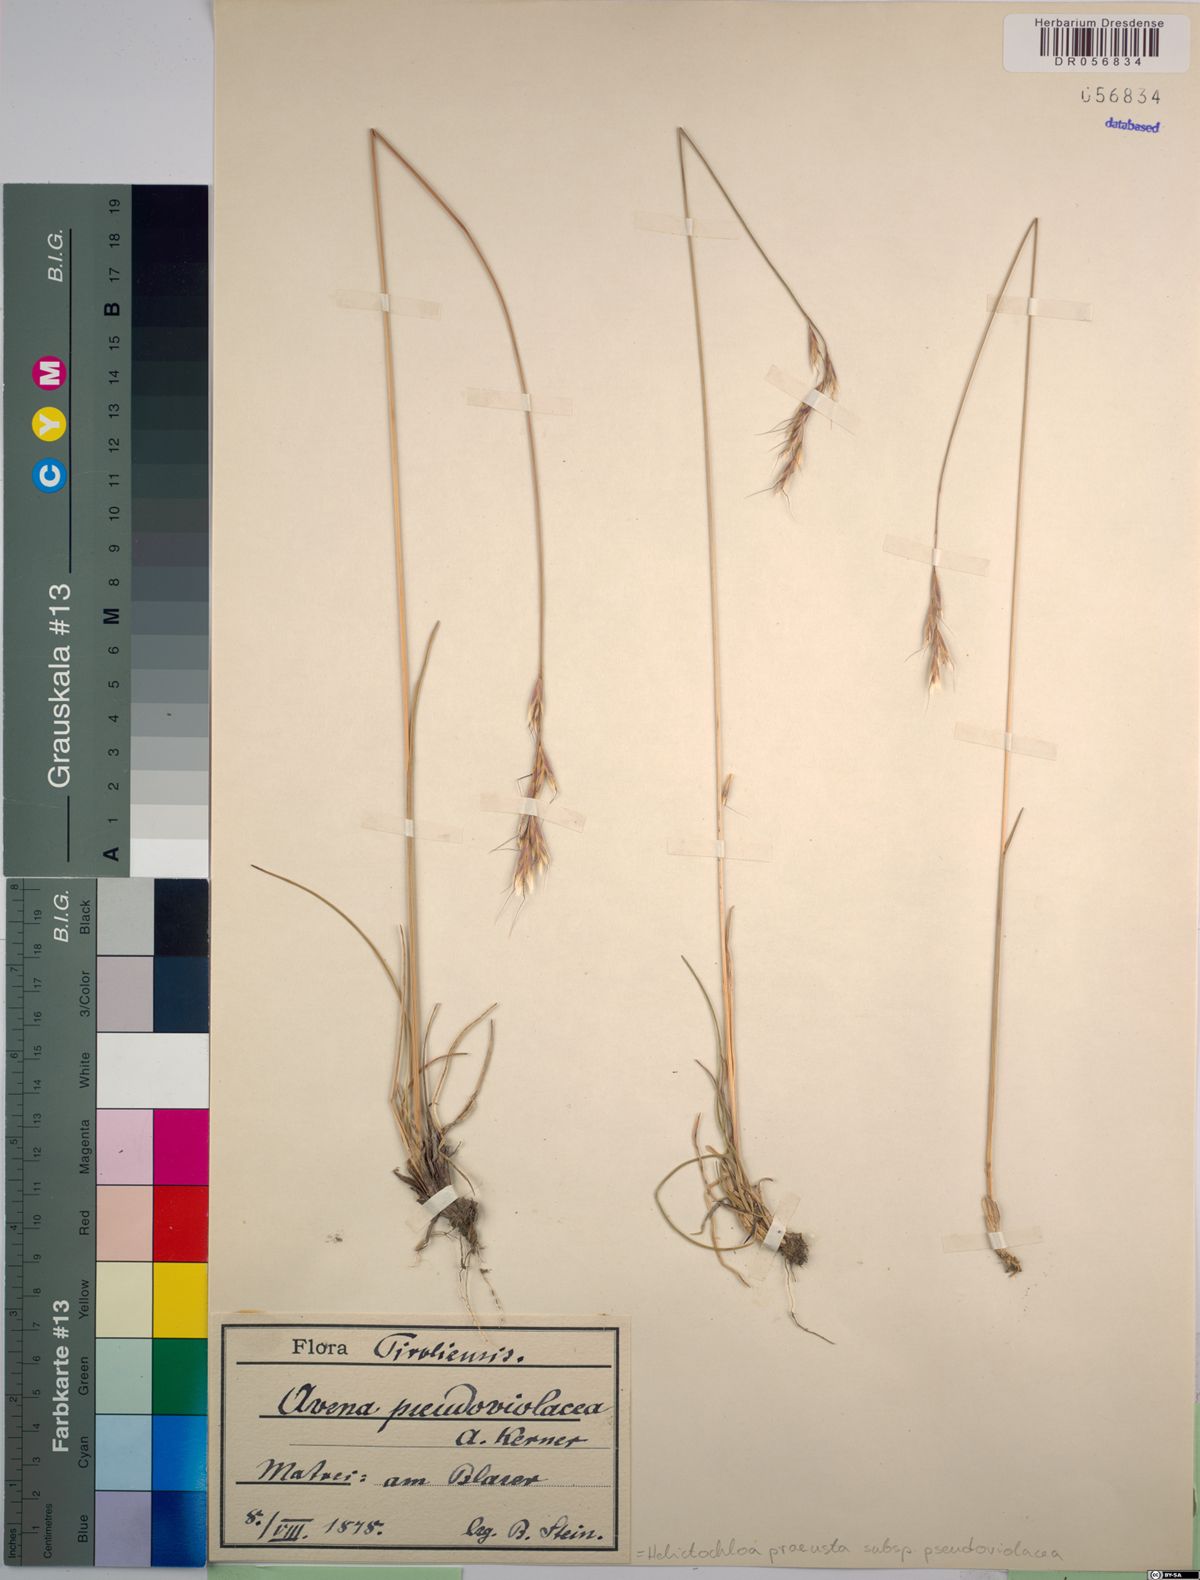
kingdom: Plantae
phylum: Tracheophyta
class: Liliopsida
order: Poales
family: Poaceae
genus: Helictochloa
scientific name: Helictochloa praeusta
